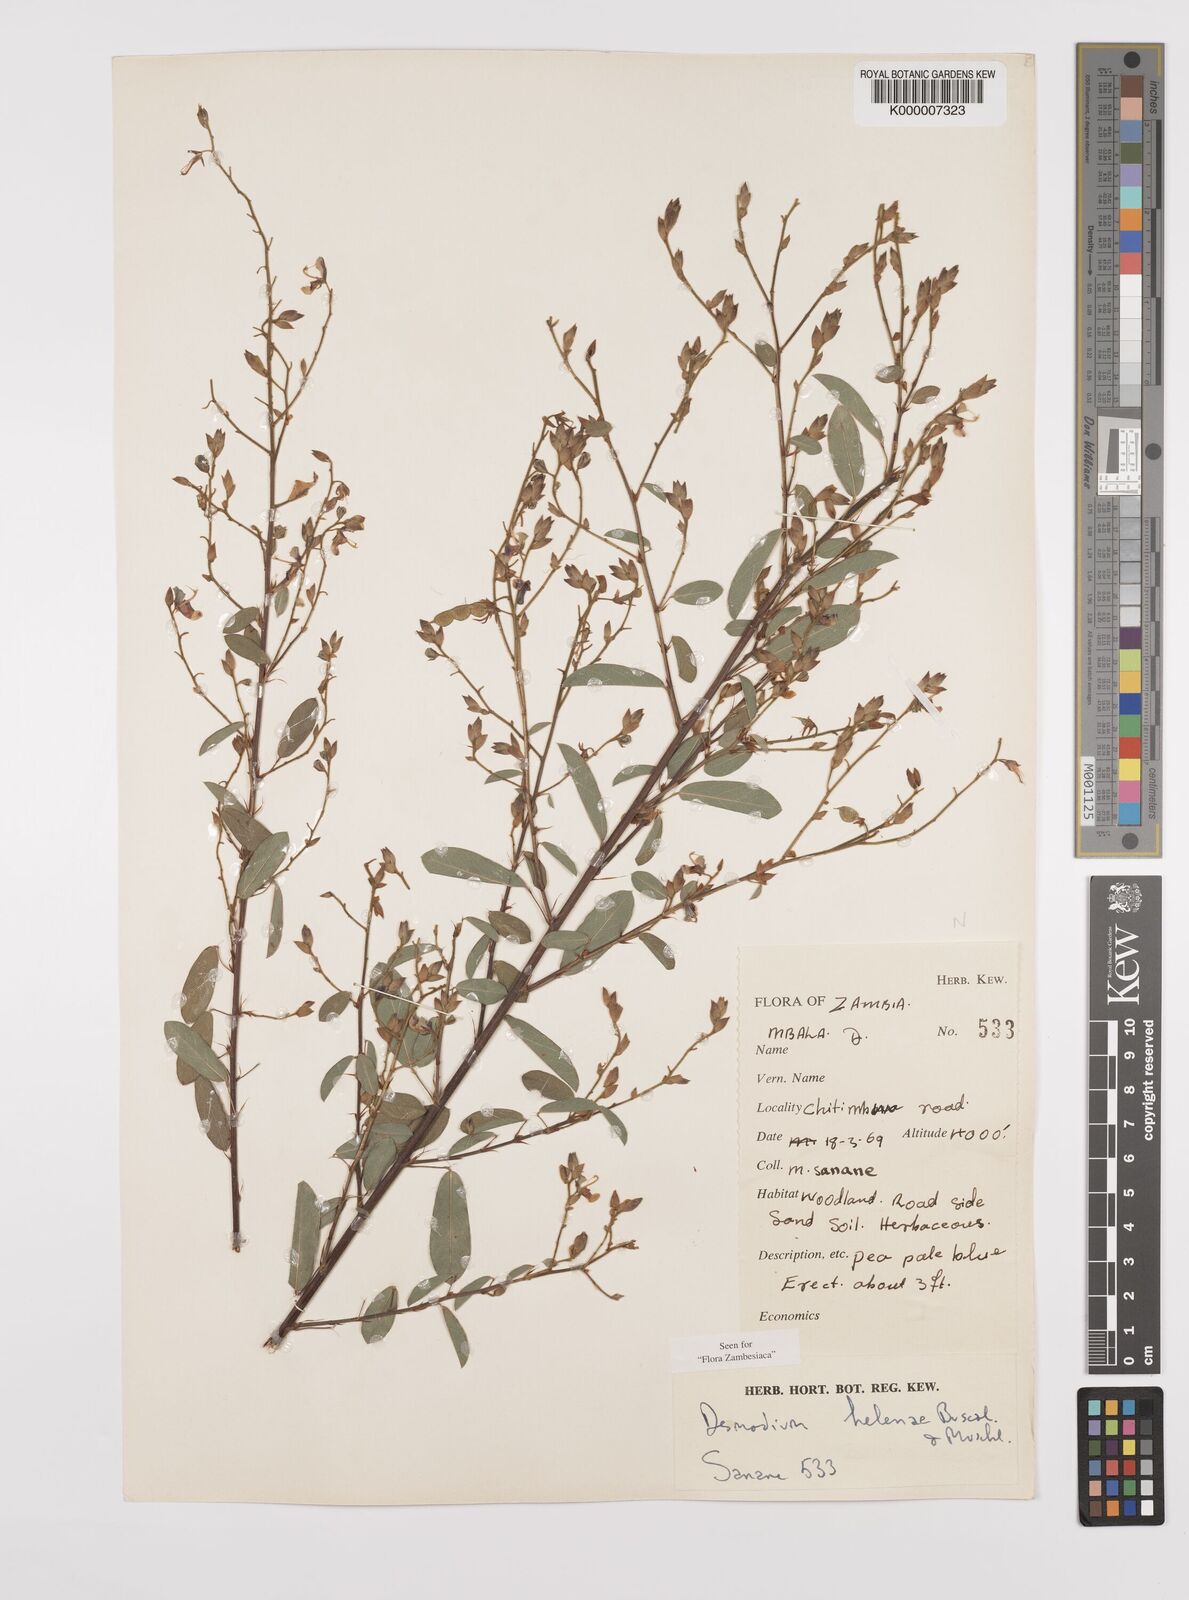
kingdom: Plantae
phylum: Tracheophyta
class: Magnoliopsida
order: Fabales
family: Fabaceae
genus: Grona
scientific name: Grona helenae
